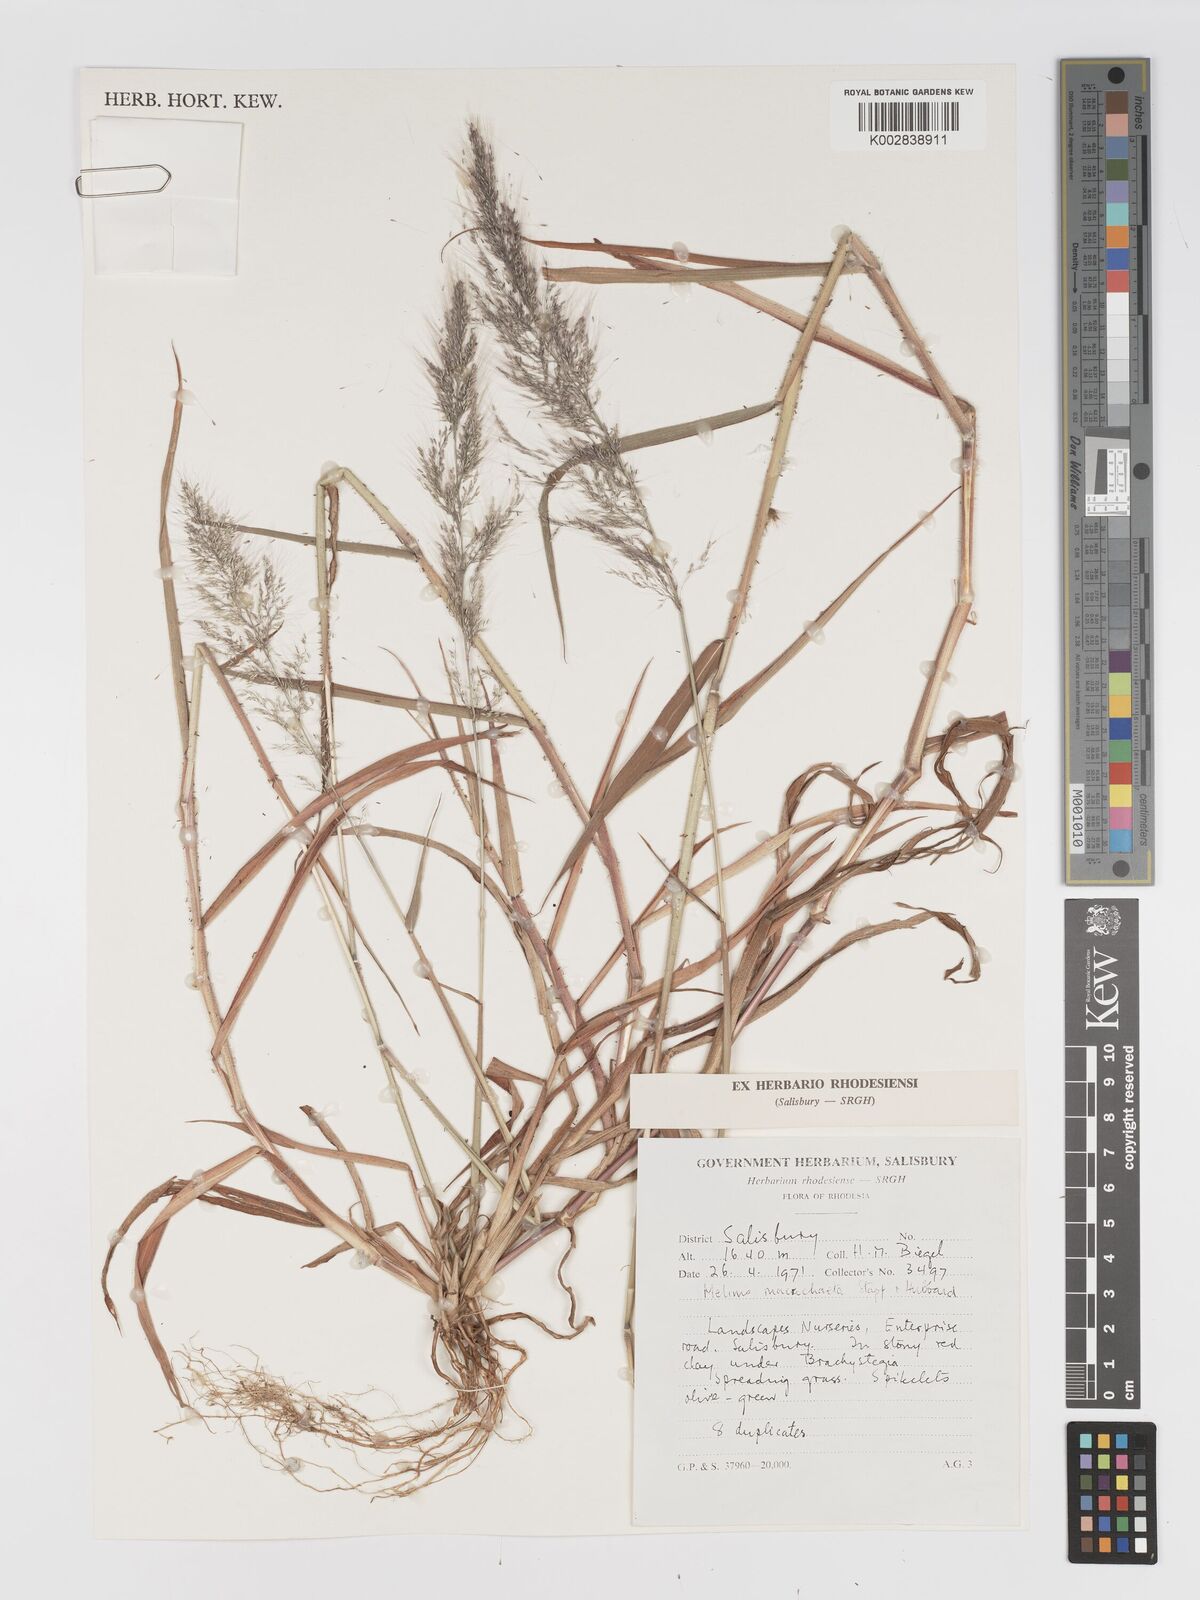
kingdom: Plantae
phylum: Tracheophyta
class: Liliopsida
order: Poales
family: Poaceae
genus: Melinis
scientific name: Melinis macrochaeta
